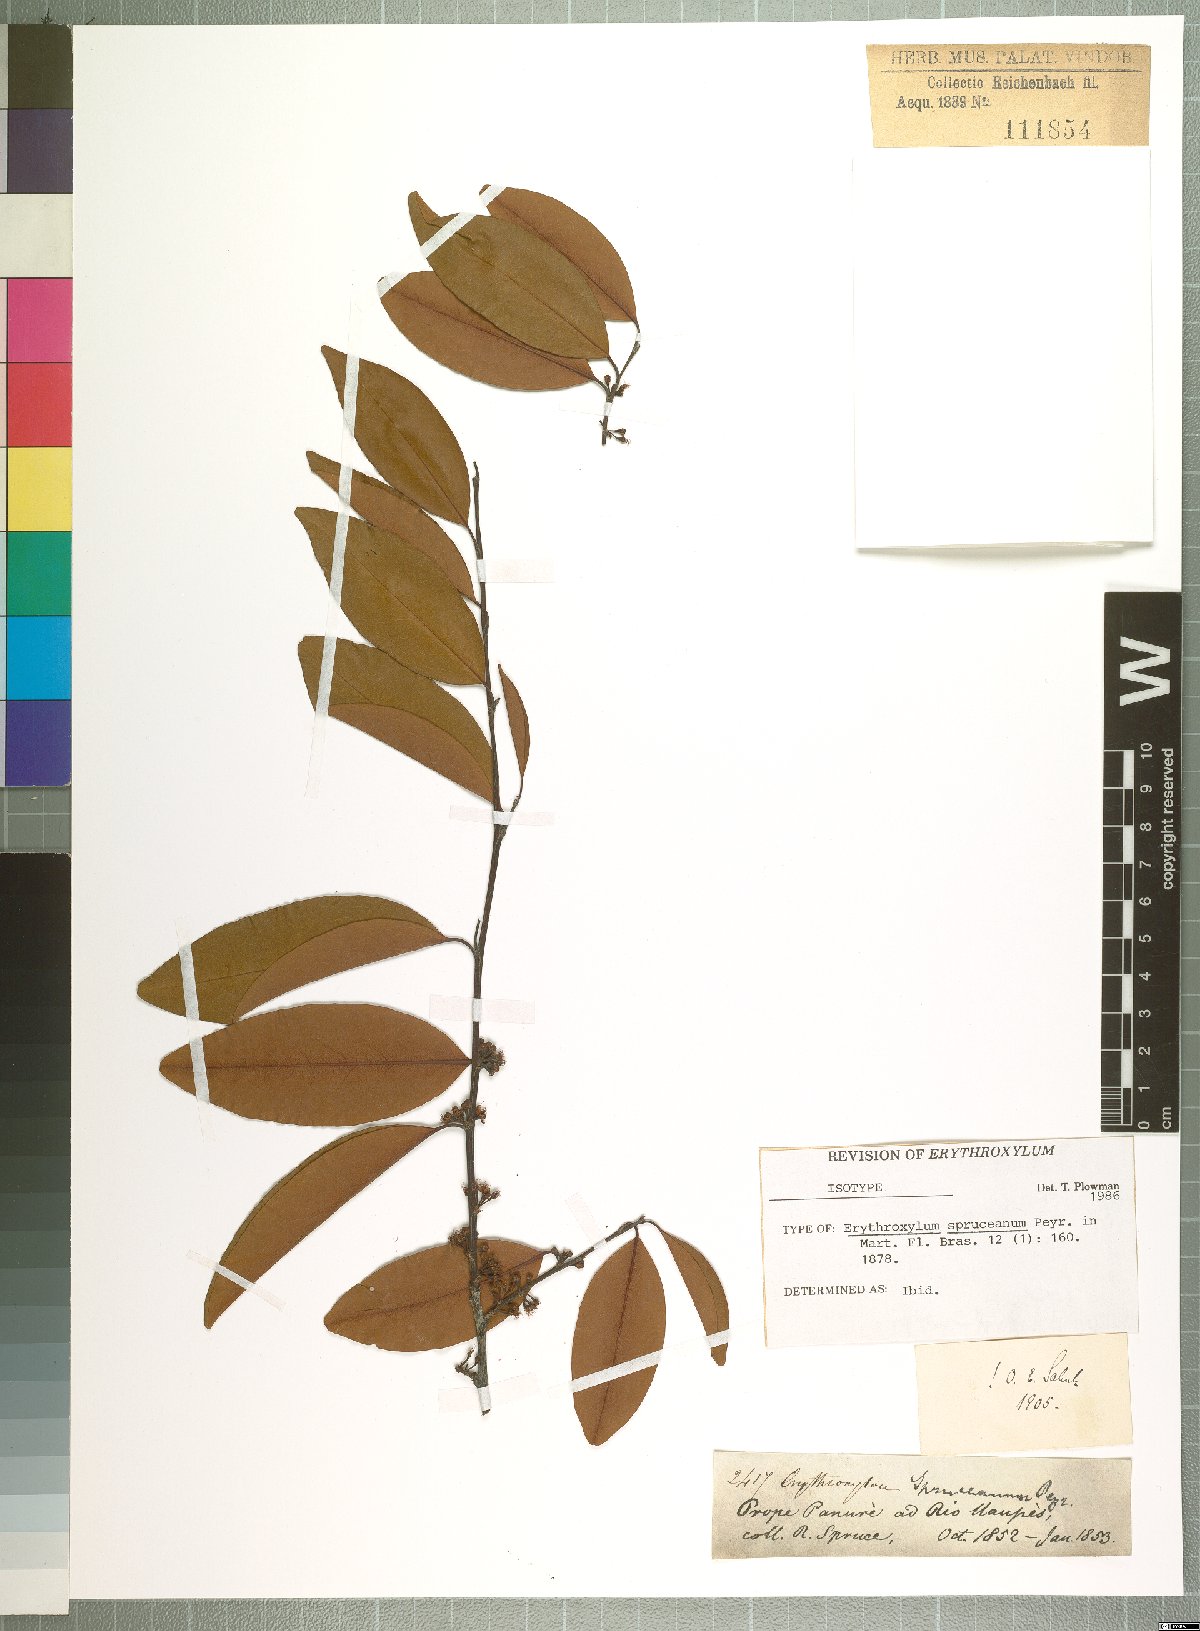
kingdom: Plantae
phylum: Tracheophyta
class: Magnoliopsida
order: Malpighiales
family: Erythroxylaceae
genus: Erythroxylum
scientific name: Erythroxylum spruceanum
